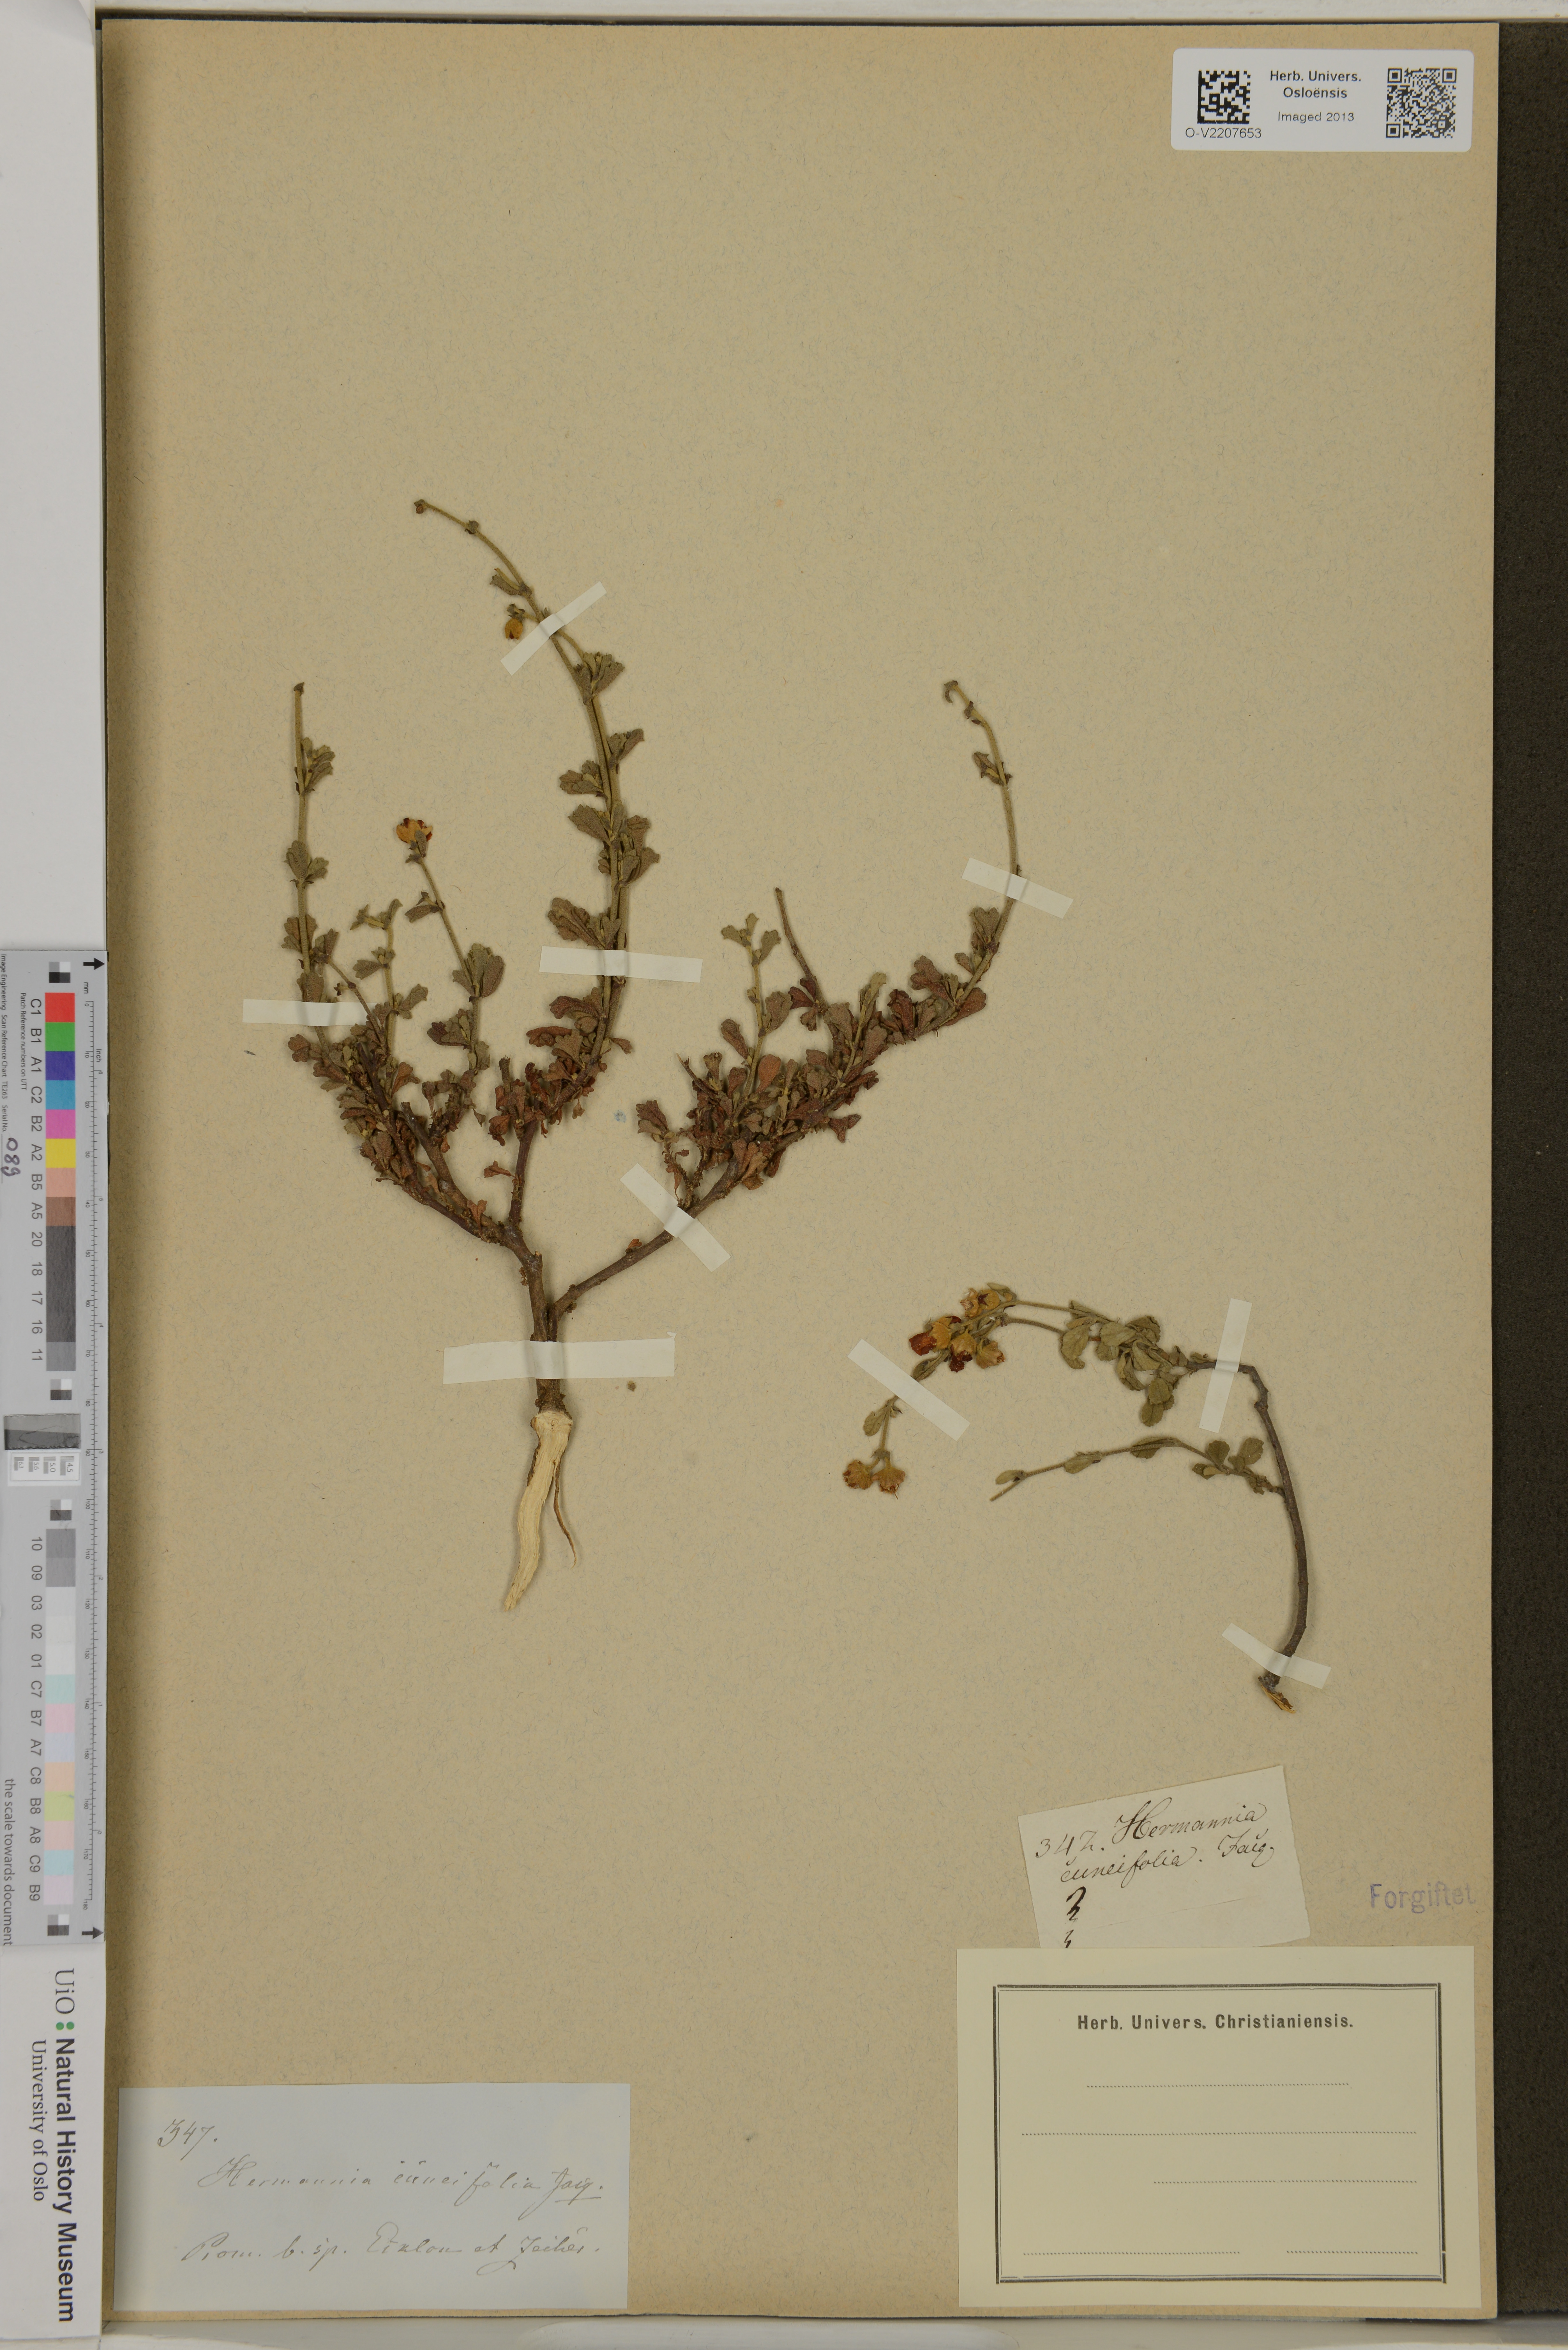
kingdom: Plantae
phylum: Tracheophyta
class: Magnoliopsida
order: Malvales
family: Malvaceae
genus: Hermannia
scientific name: Hermannia cuneifolia
